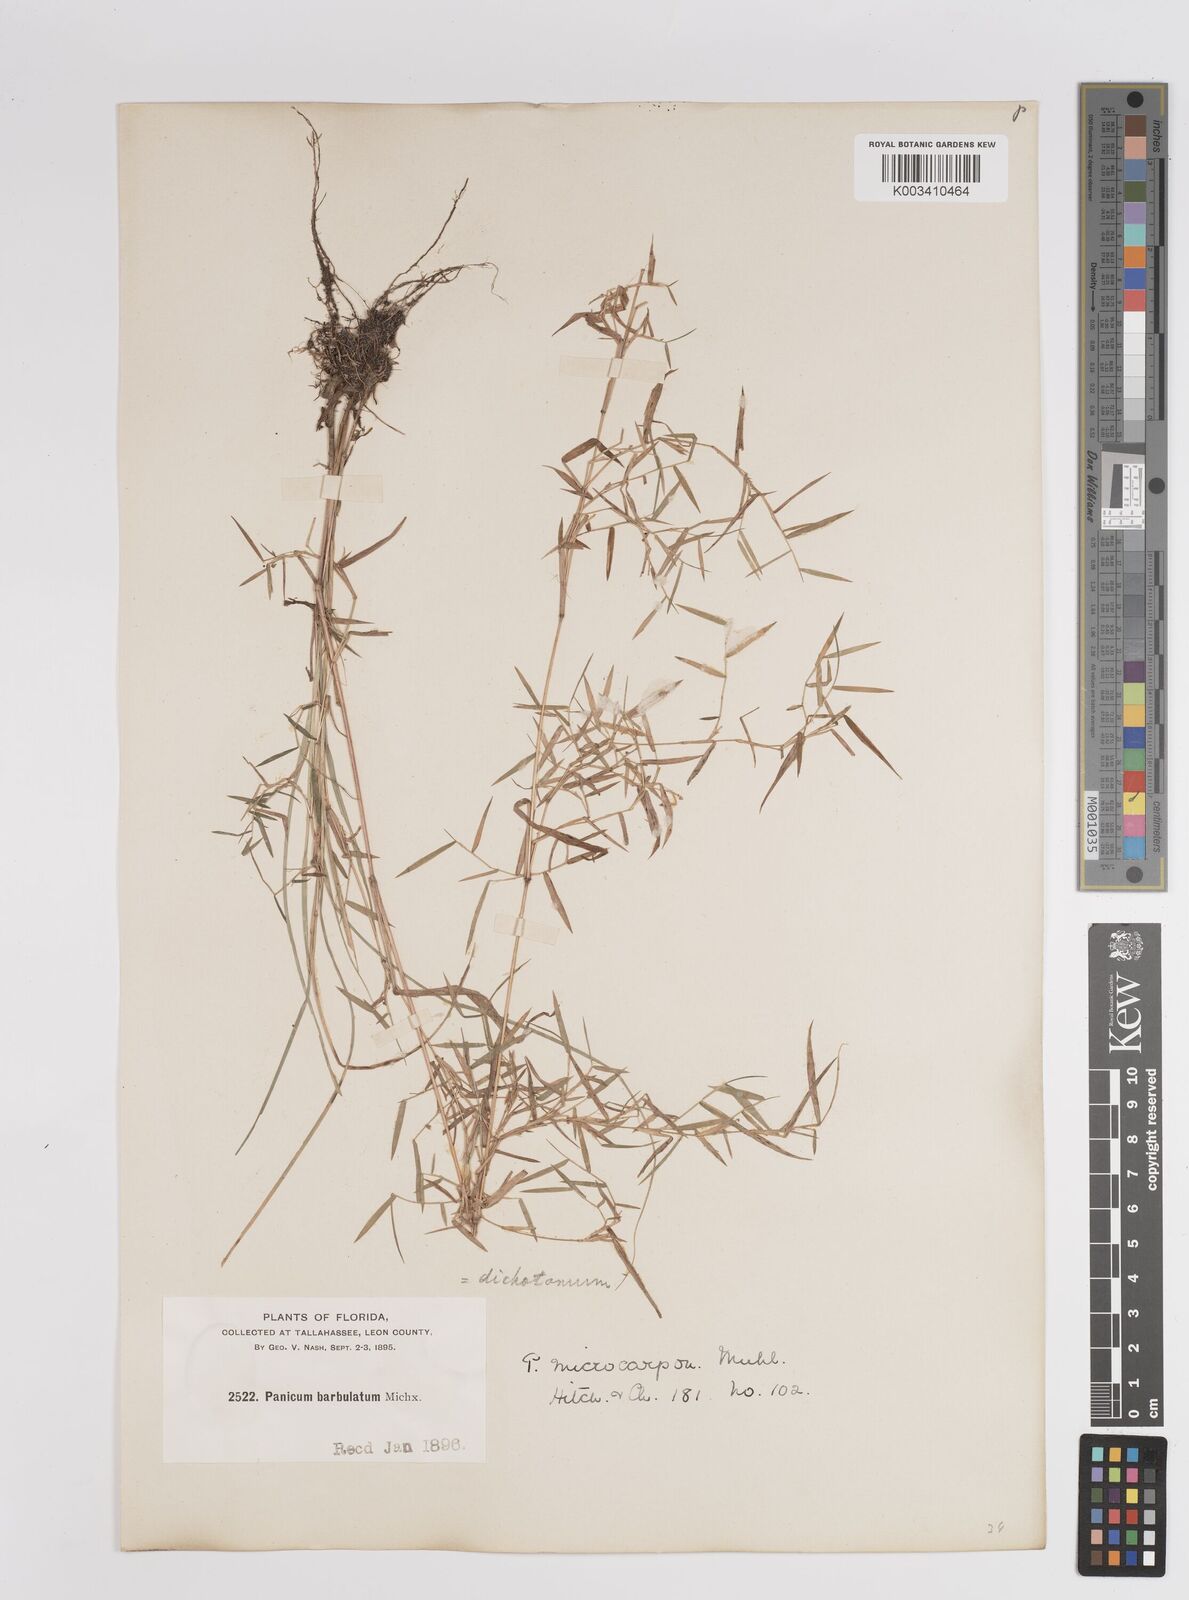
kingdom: Plantae
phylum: Tracheophyta
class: Liliopsida
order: Poales
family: Poaceae
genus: Dichanthelium
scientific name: Dichanthelium polyanthes
